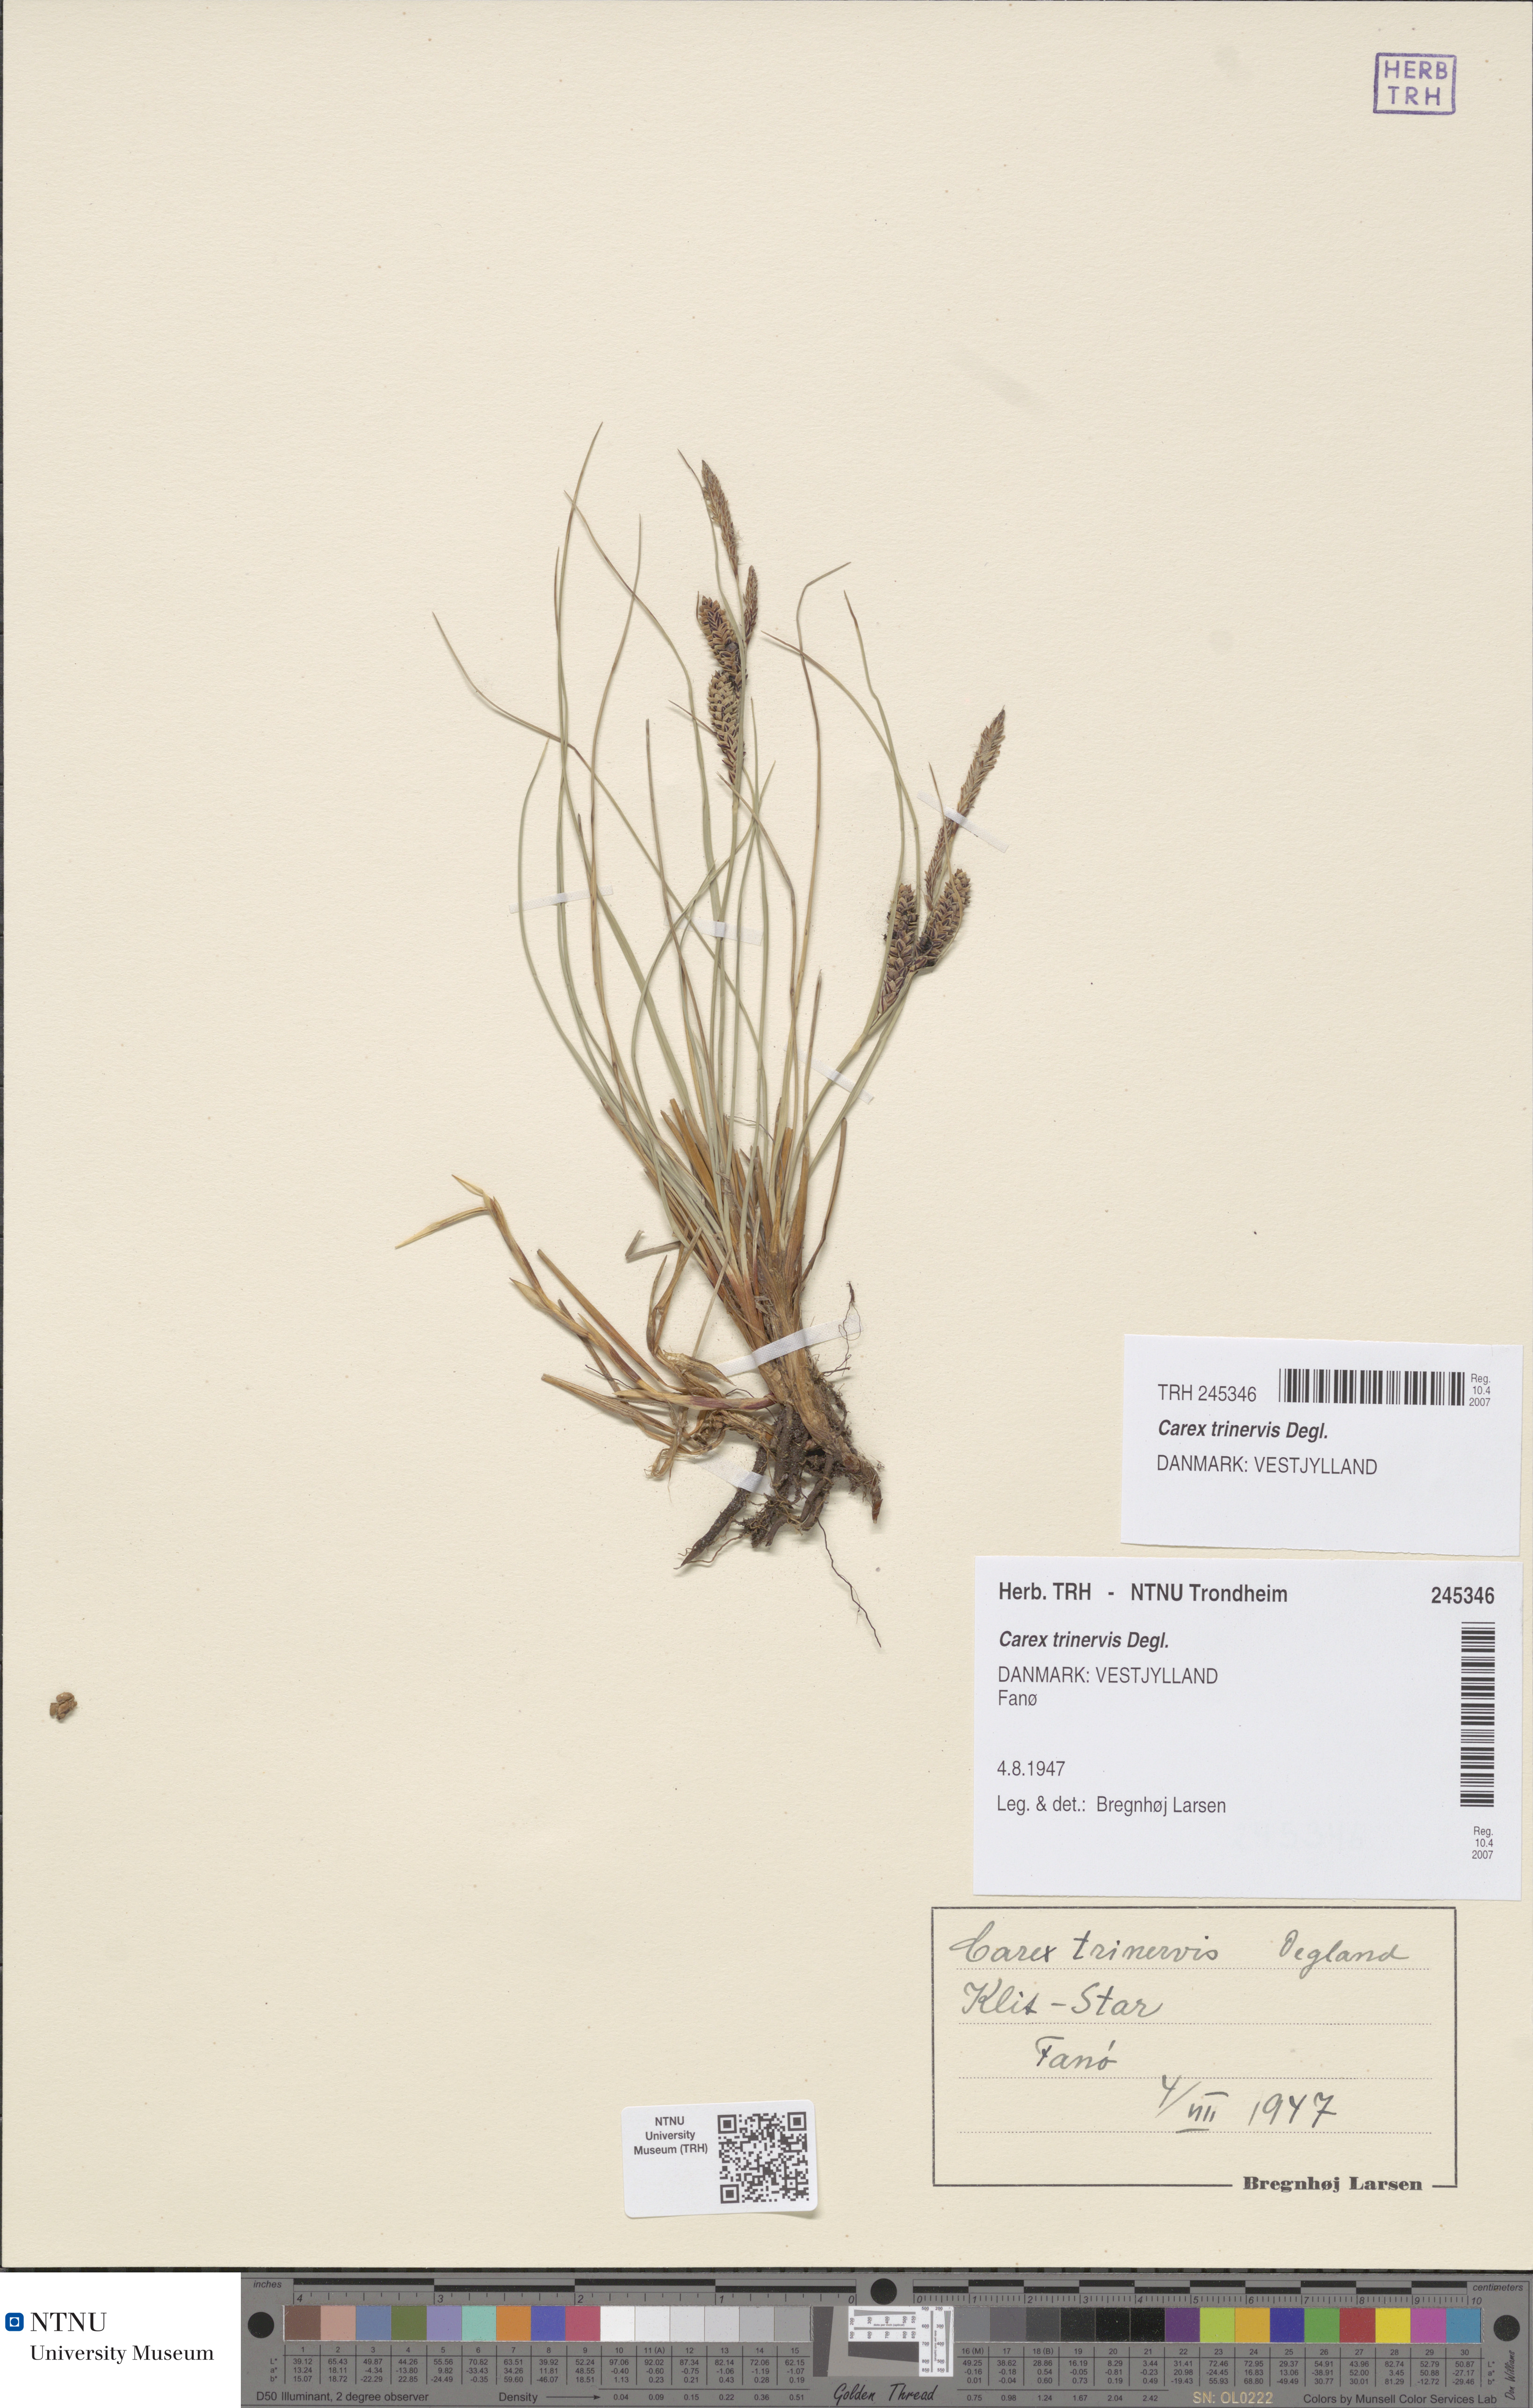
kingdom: Plantae
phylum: Tracheophyta
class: Liliopsida
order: Poales
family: Cyperaceae
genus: Carex
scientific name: Carex trinervis
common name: Three-nerved sedge
